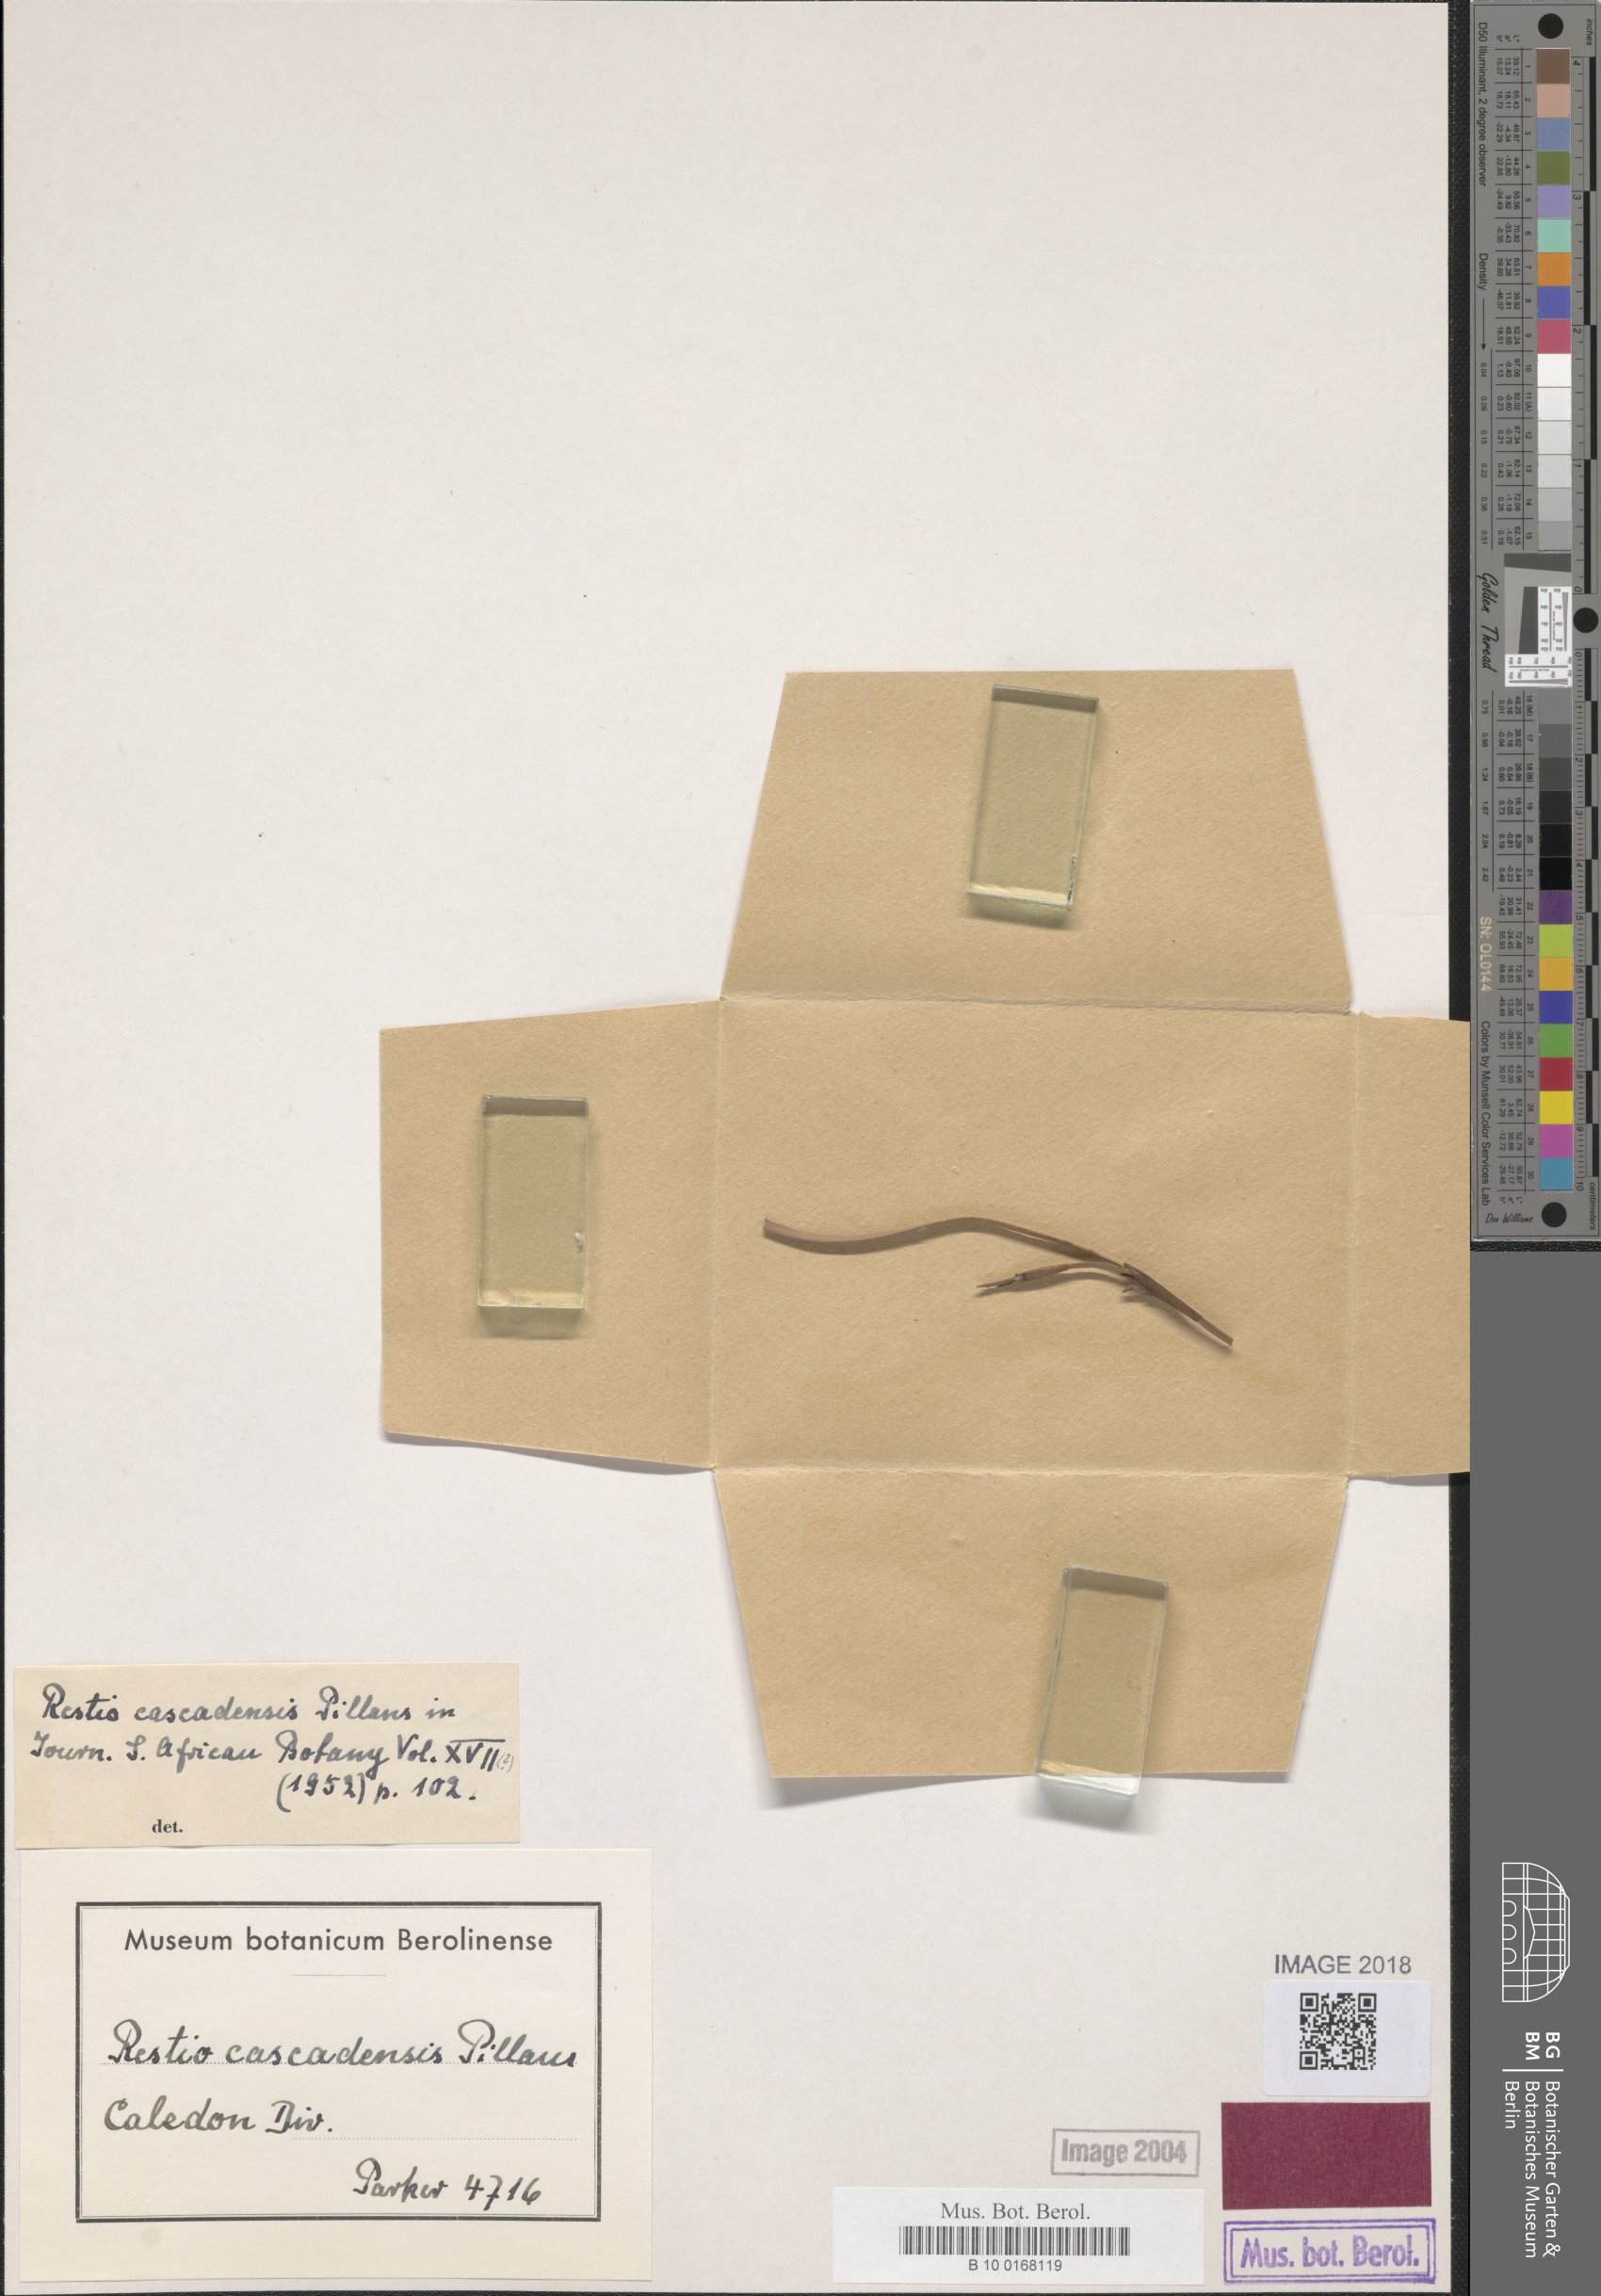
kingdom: Plantae
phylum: Tracheophyta
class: Liliopsida
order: Poales
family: Restionaceae
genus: Platycaulos
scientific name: Platycaulos cascadensis
